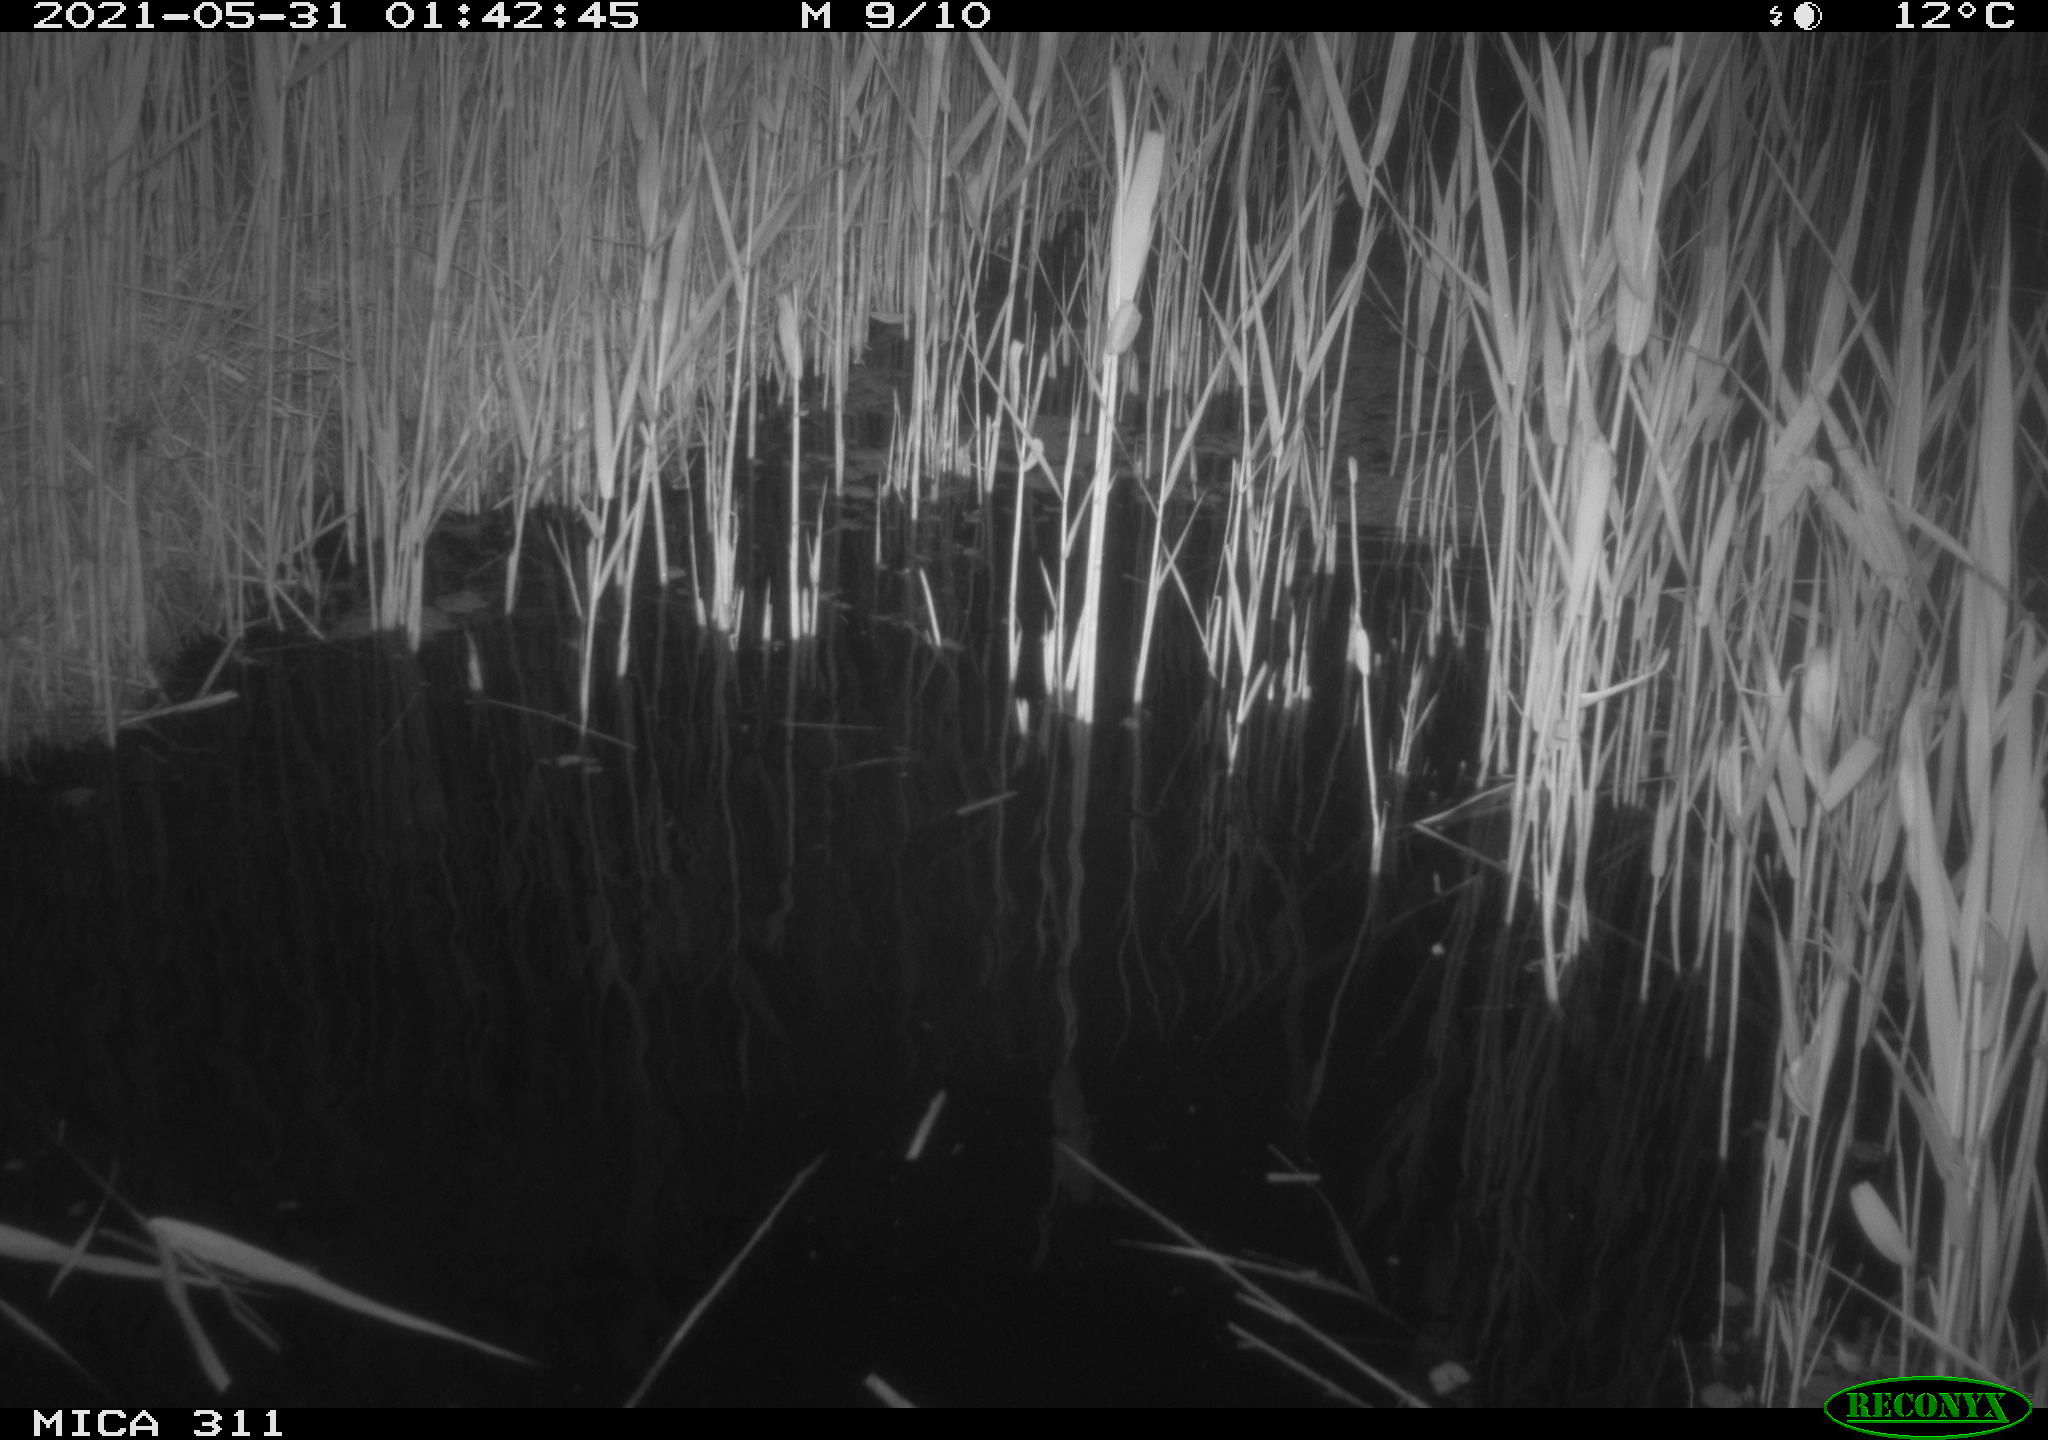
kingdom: Animalia
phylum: Chordata
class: Mammalia
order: Rodentia
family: Muridae
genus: Rattus
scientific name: Rattus norvegicus
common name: Brown rat
